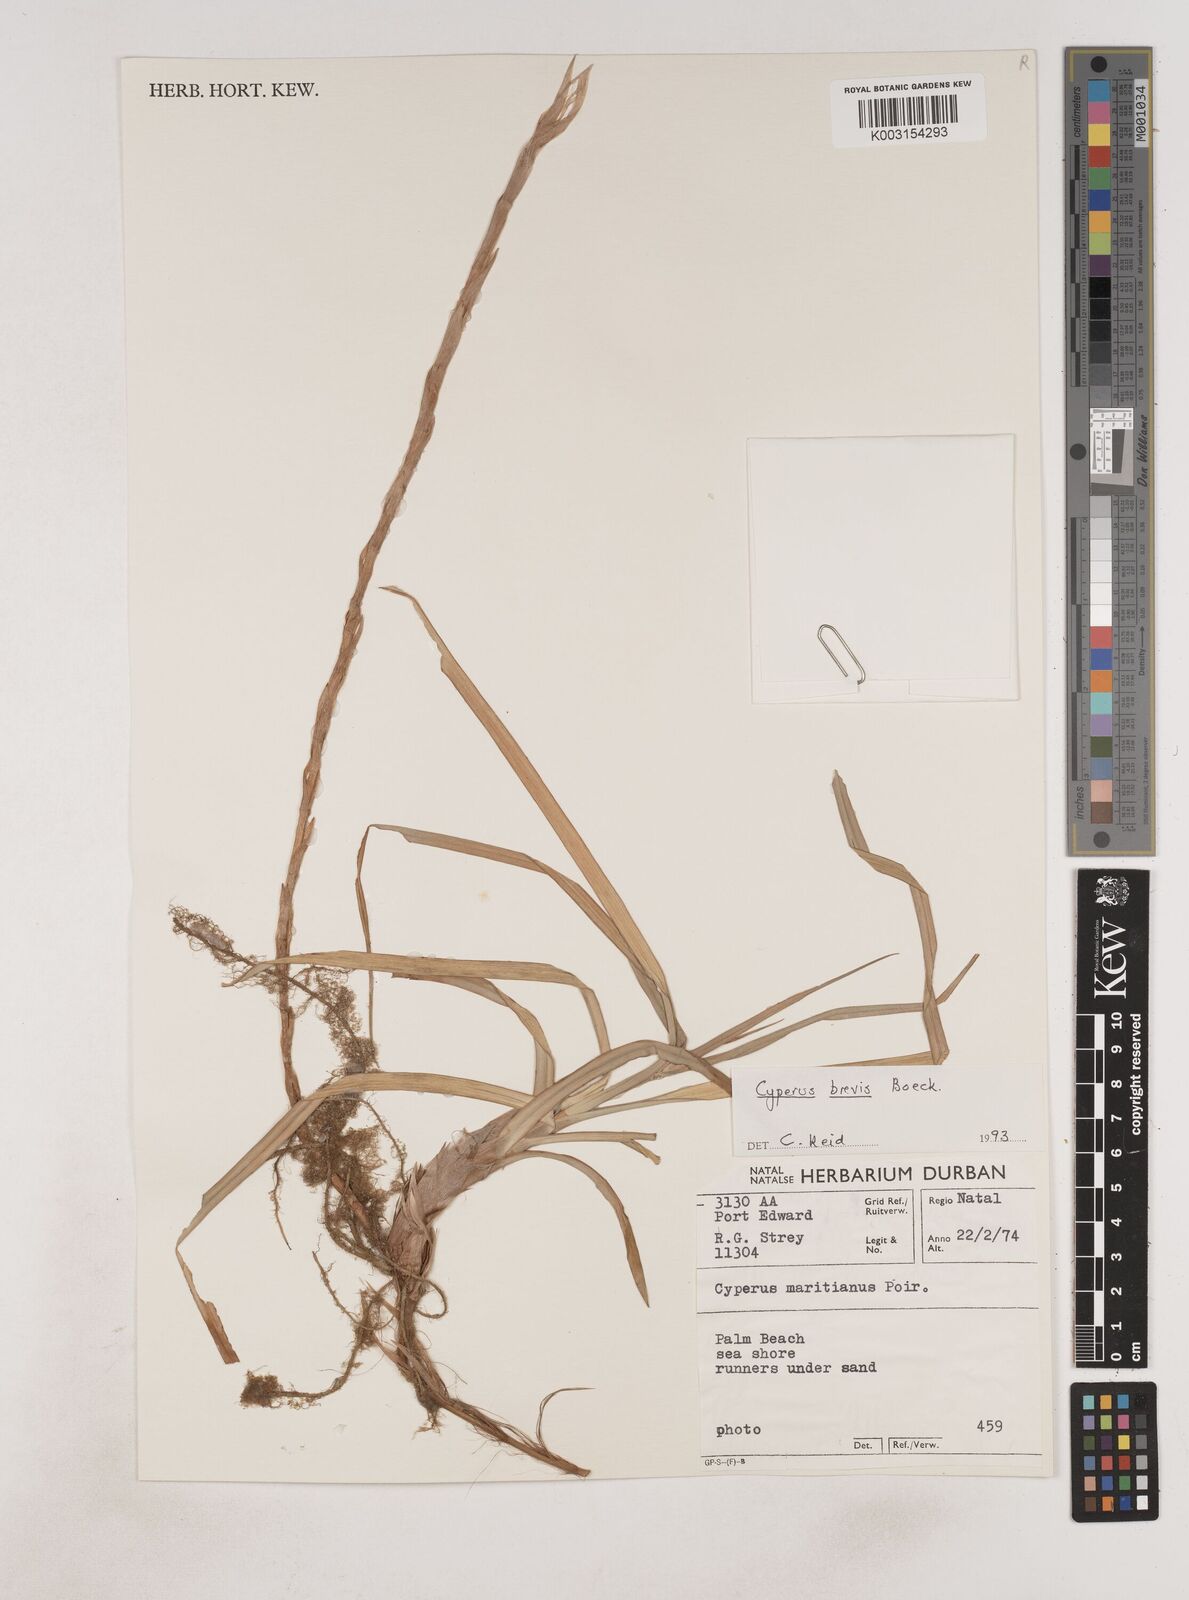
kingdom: Plantae
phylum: Tracheophyta
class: Liliopsida
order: Poales
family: Cyperaceae
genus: Cyperus
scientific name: Cyperus congestus
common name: Dense flat sedge
